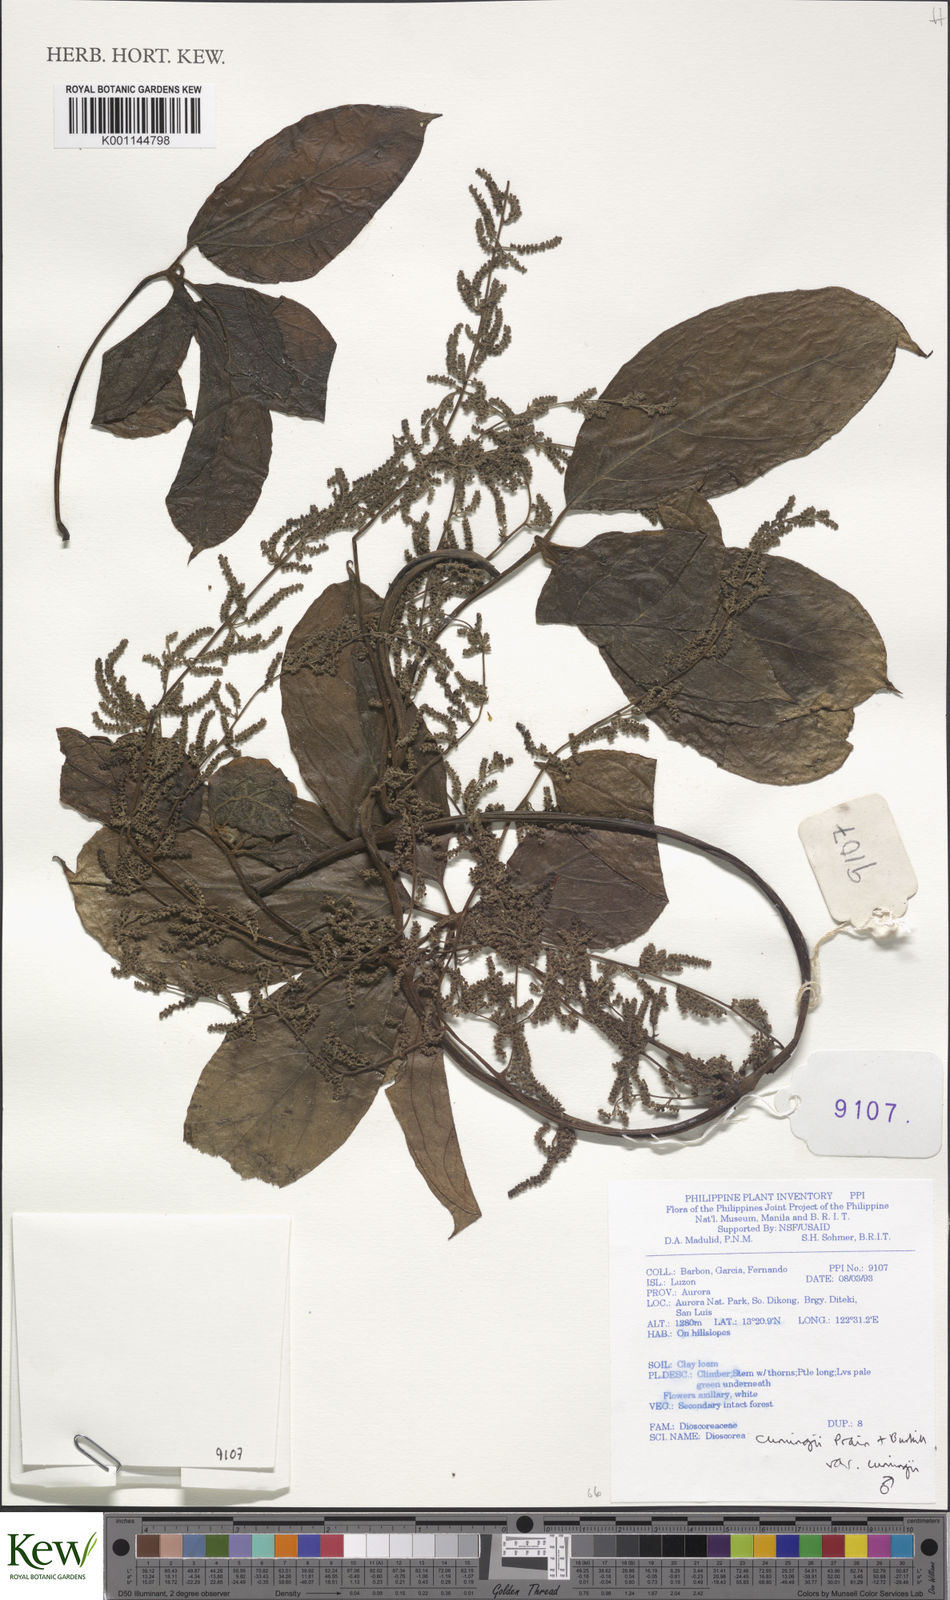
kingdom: Plantae
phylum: Tracheophyta
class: Liliopsida
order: Dioscoreales
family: Dioscoreaceae
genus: Dioscorea
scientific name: Dioscorea cumingii
